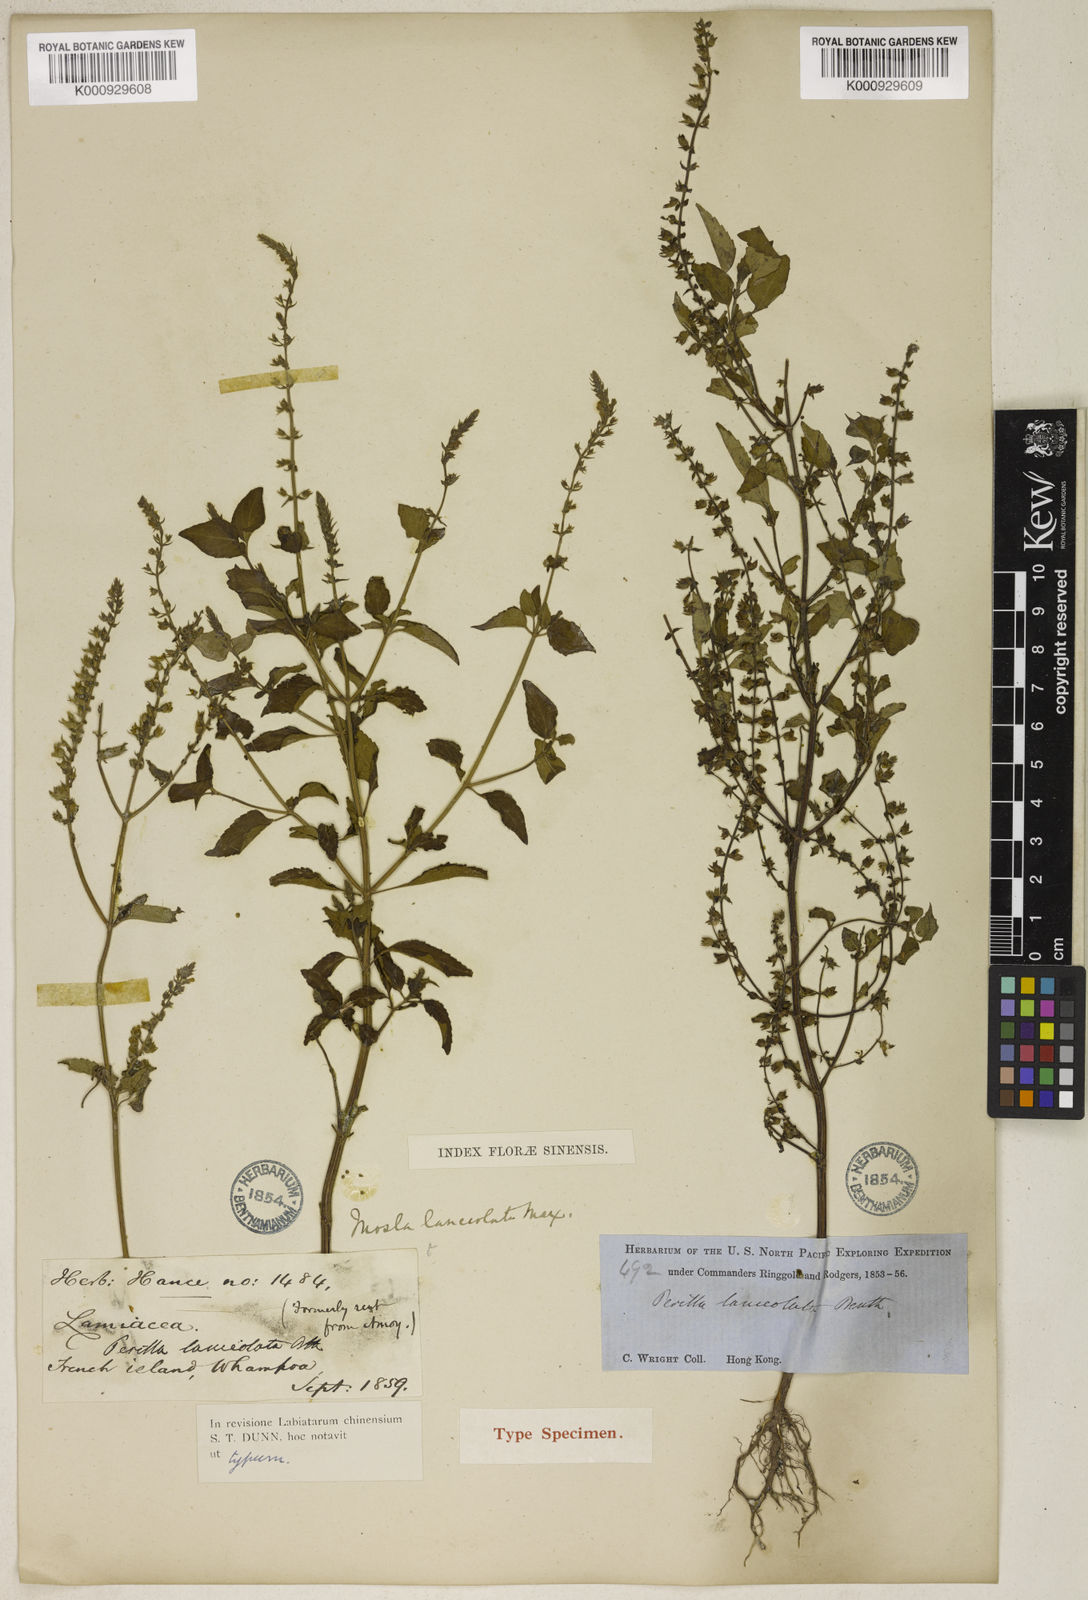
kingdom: Plantae
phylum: Tracheophyta
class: Magnoliopsida
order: Lamiales
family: Lamiaceae
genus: Mosla
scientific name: Mosla scabra
